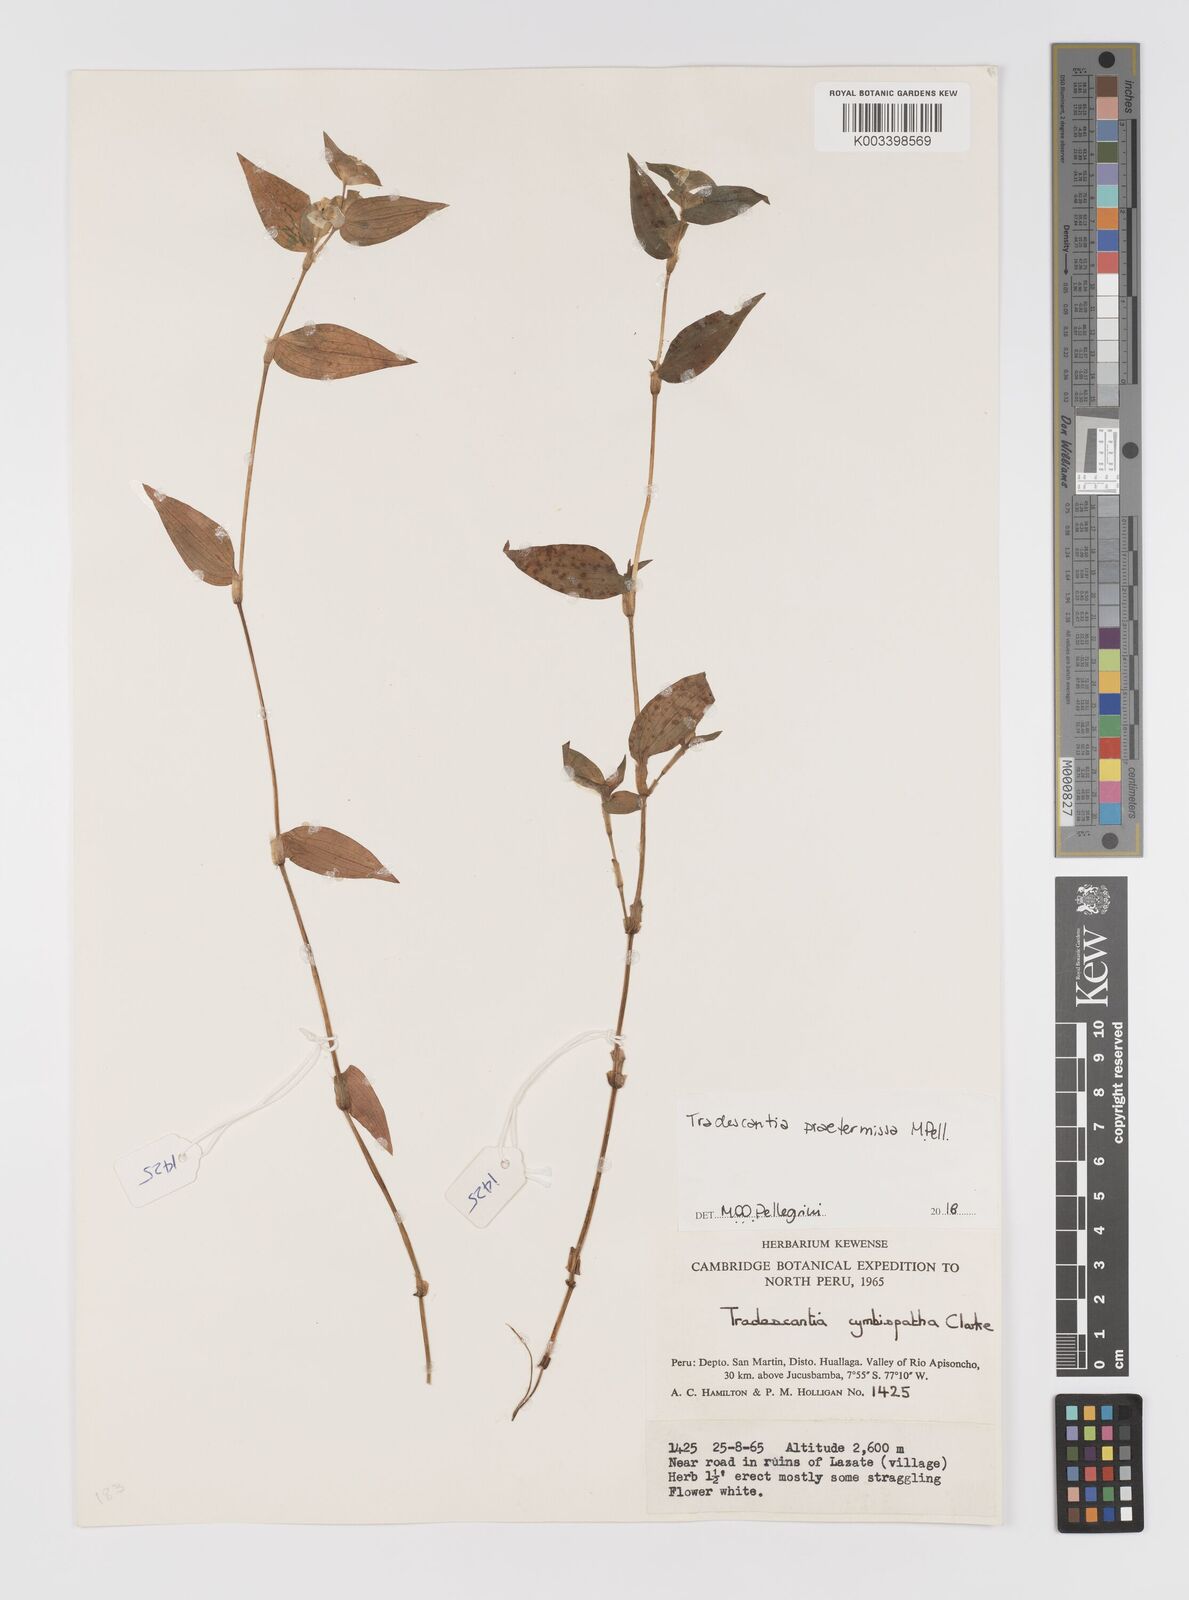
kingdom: Plantae
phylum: Tracheophyta
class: Liliopsida
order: Commelinales
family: Commelinaceae
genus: Tradescantia
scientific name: Tradescantia praetermissa
